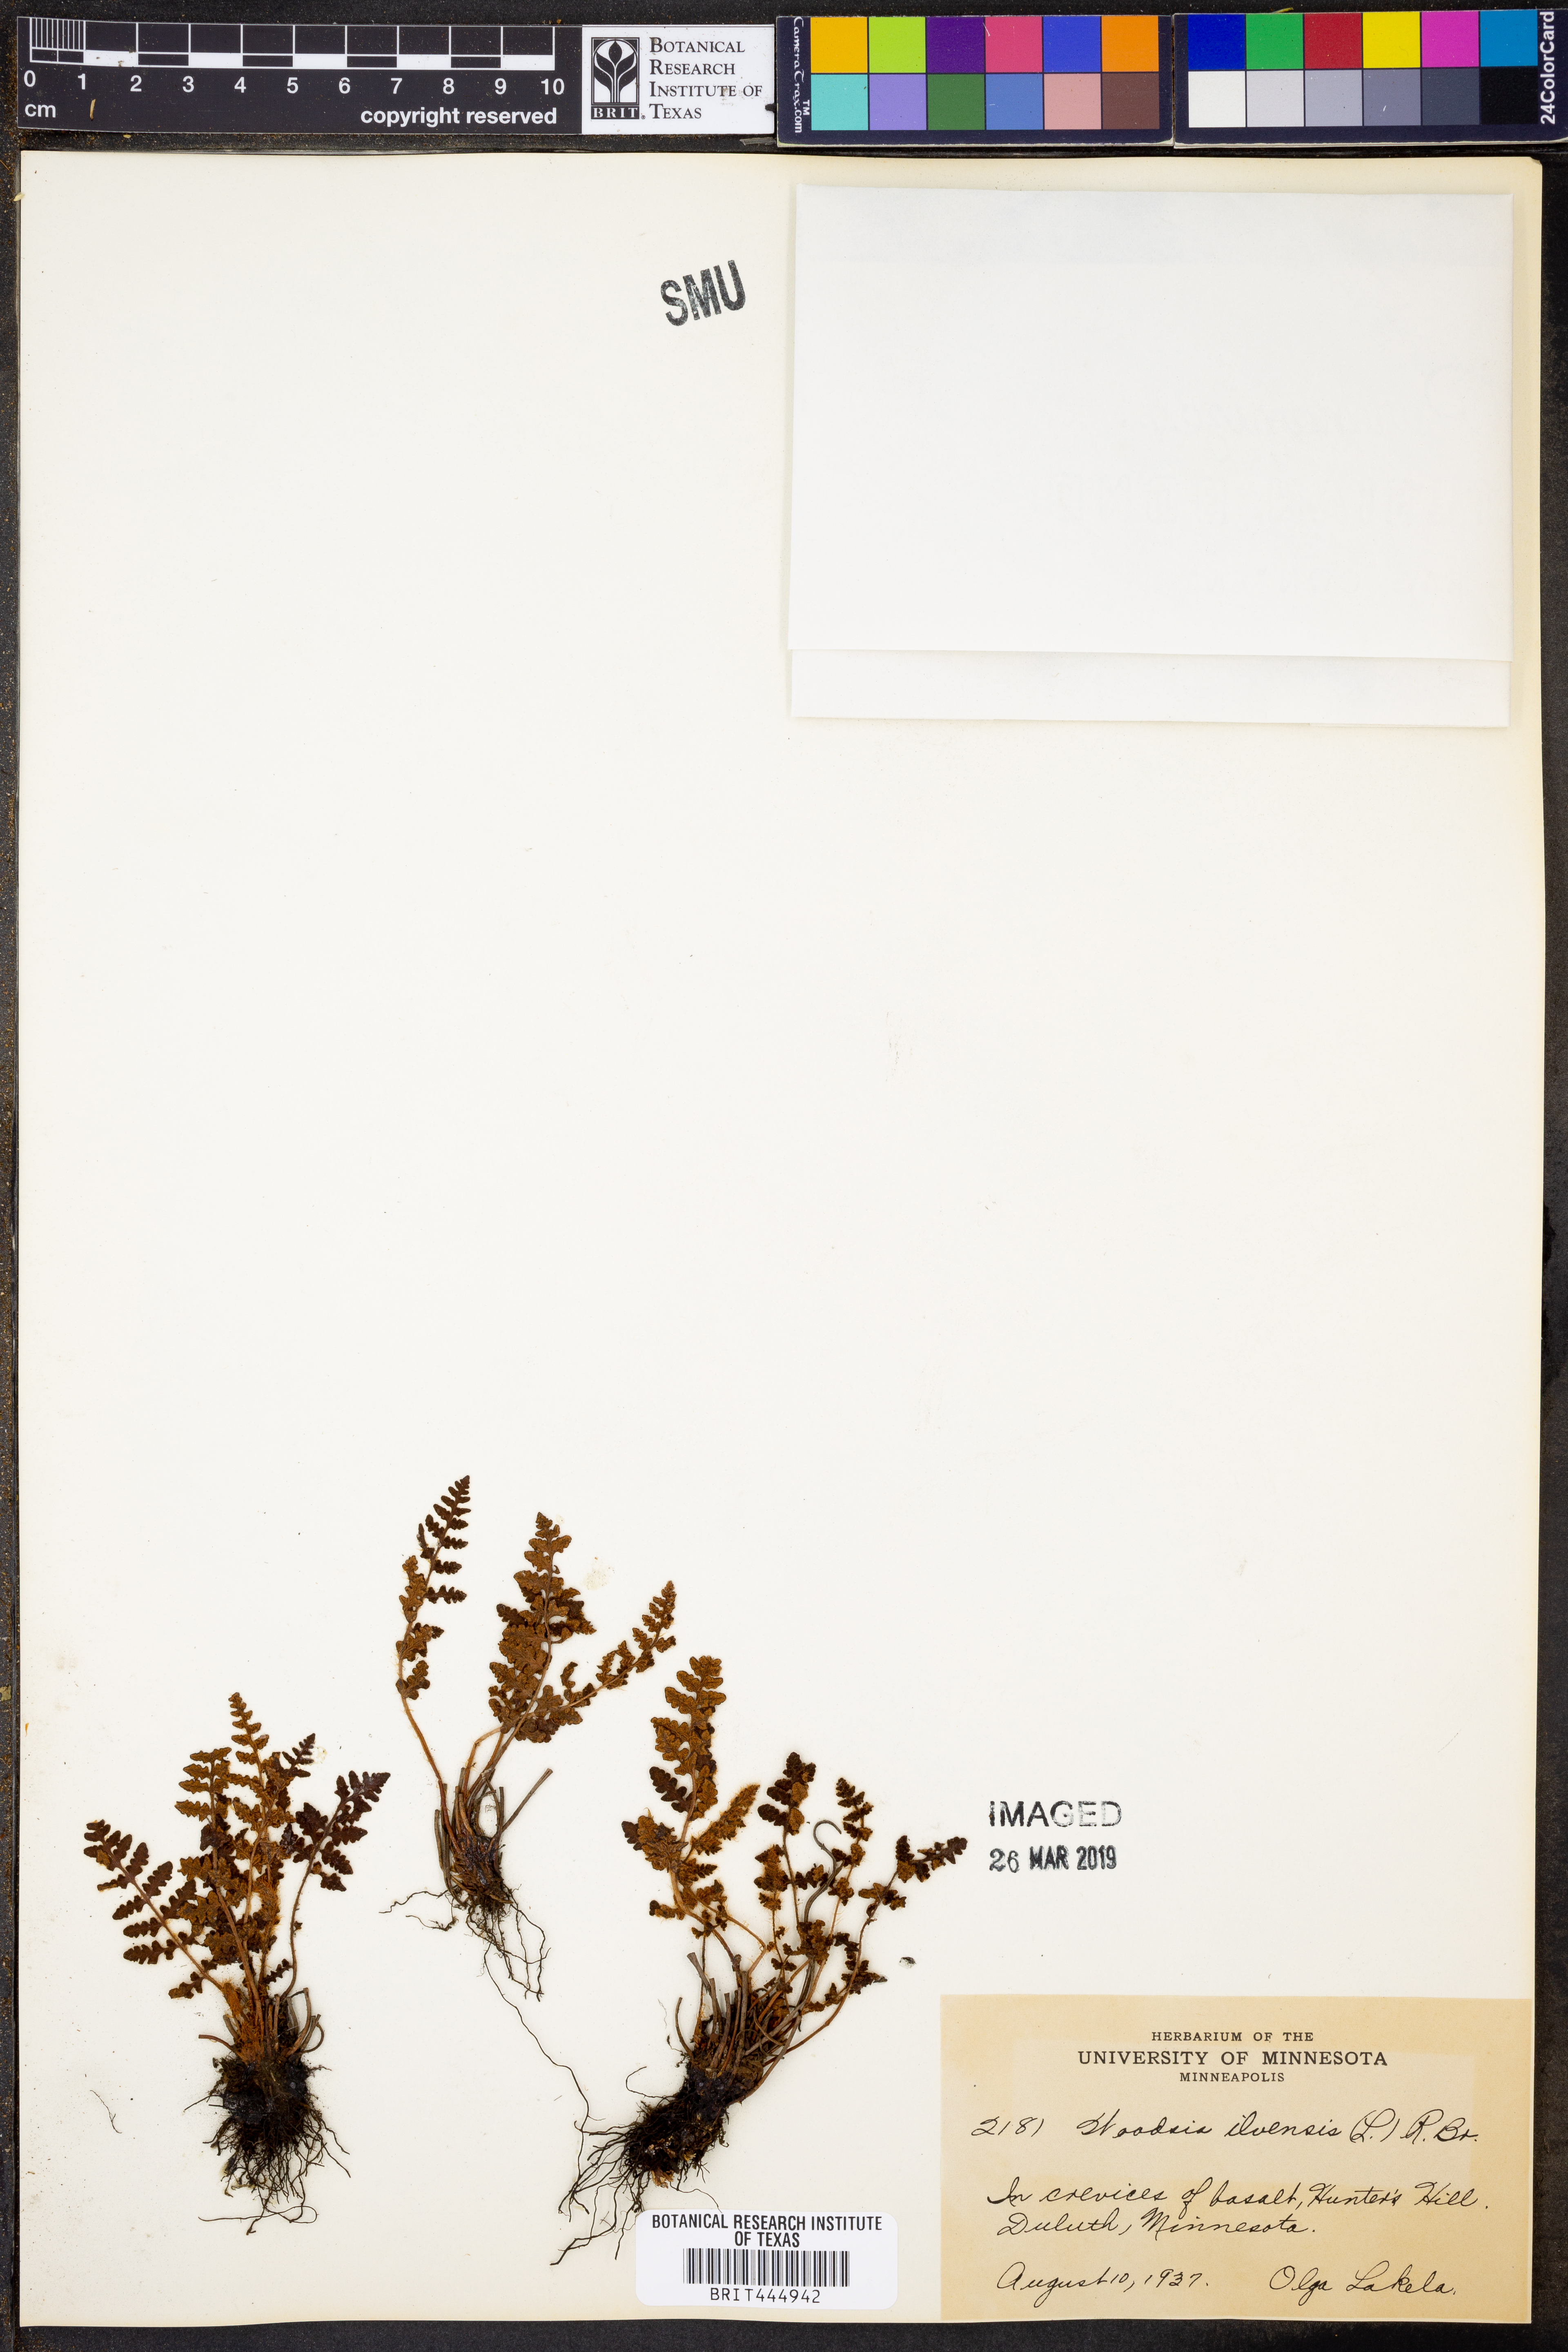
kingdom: Plantae
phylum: Tracheophyta
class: Polypodiopsida
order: Polypodiales
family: Woodsiaceae
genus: Woodsia
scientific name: Woodsia ilvensis
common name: Fragrant woodsia
